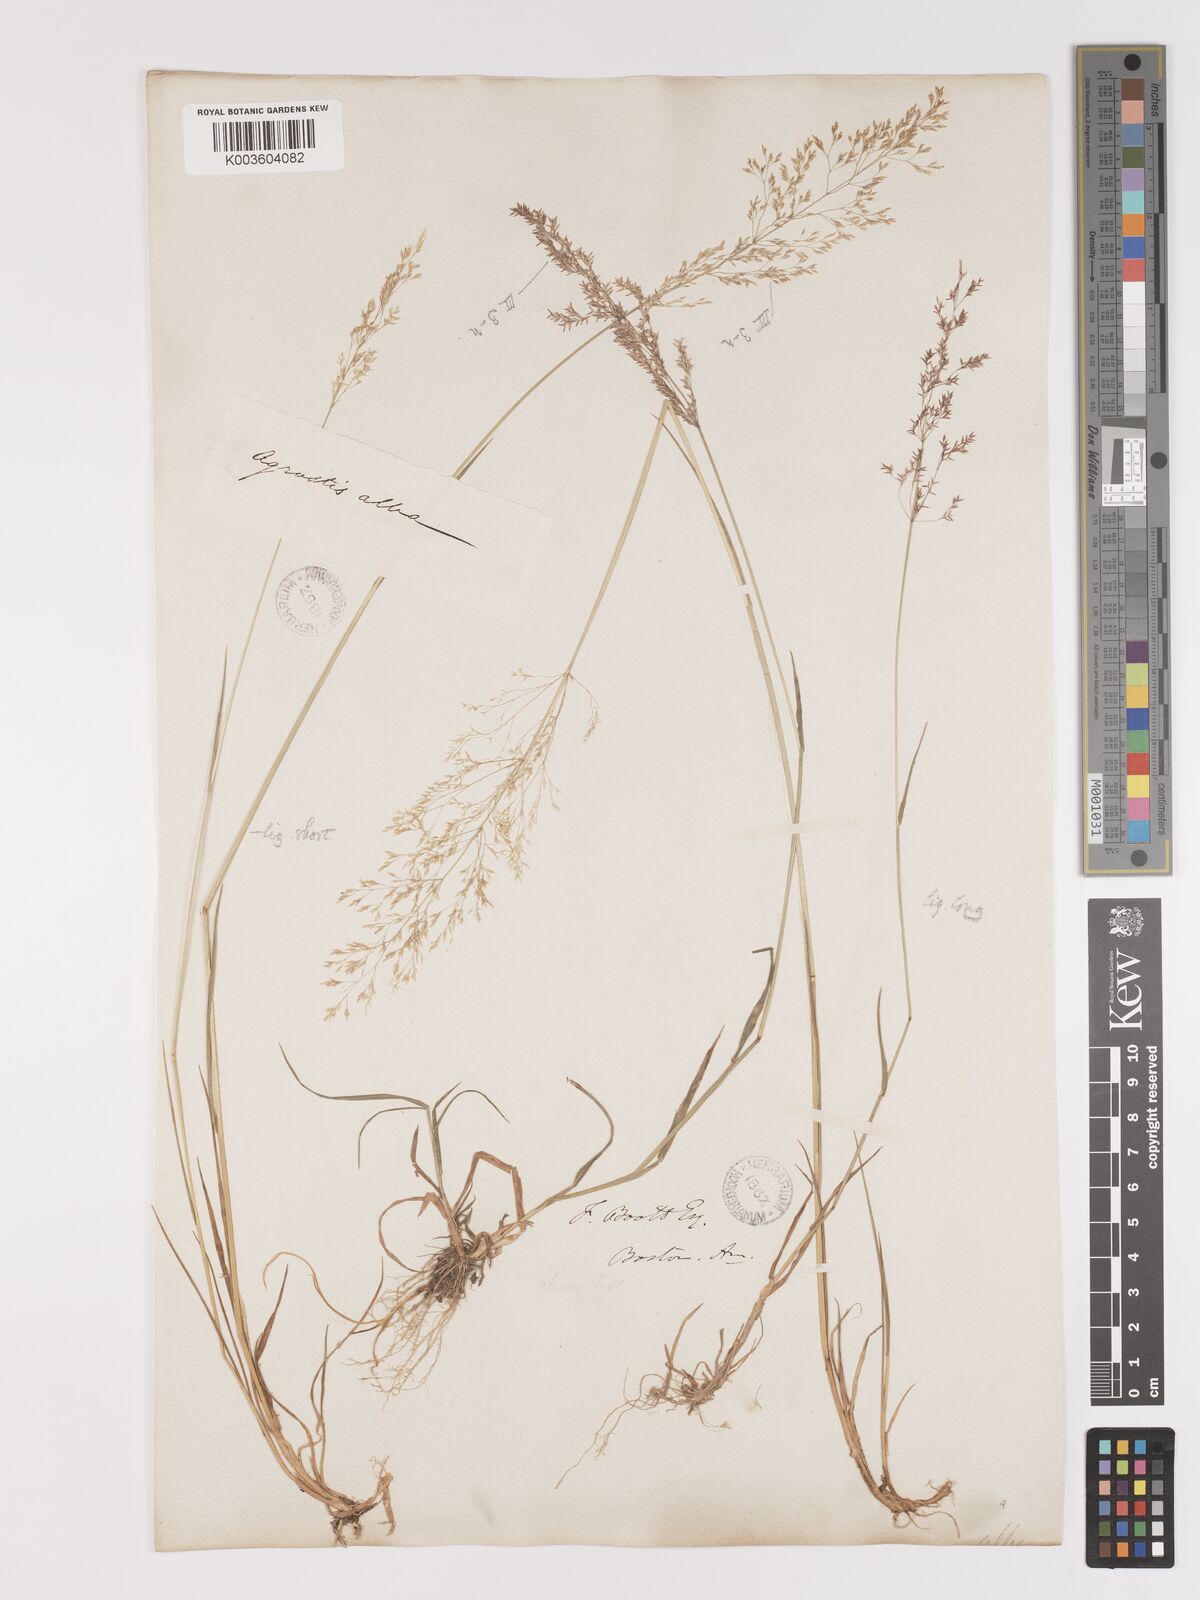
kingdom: Plantae
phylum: Tracheophyta
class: Liliopsida
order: Poales
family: Poaceae
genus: Agrostis
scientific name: Agrostis gigantea
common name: Black bent
